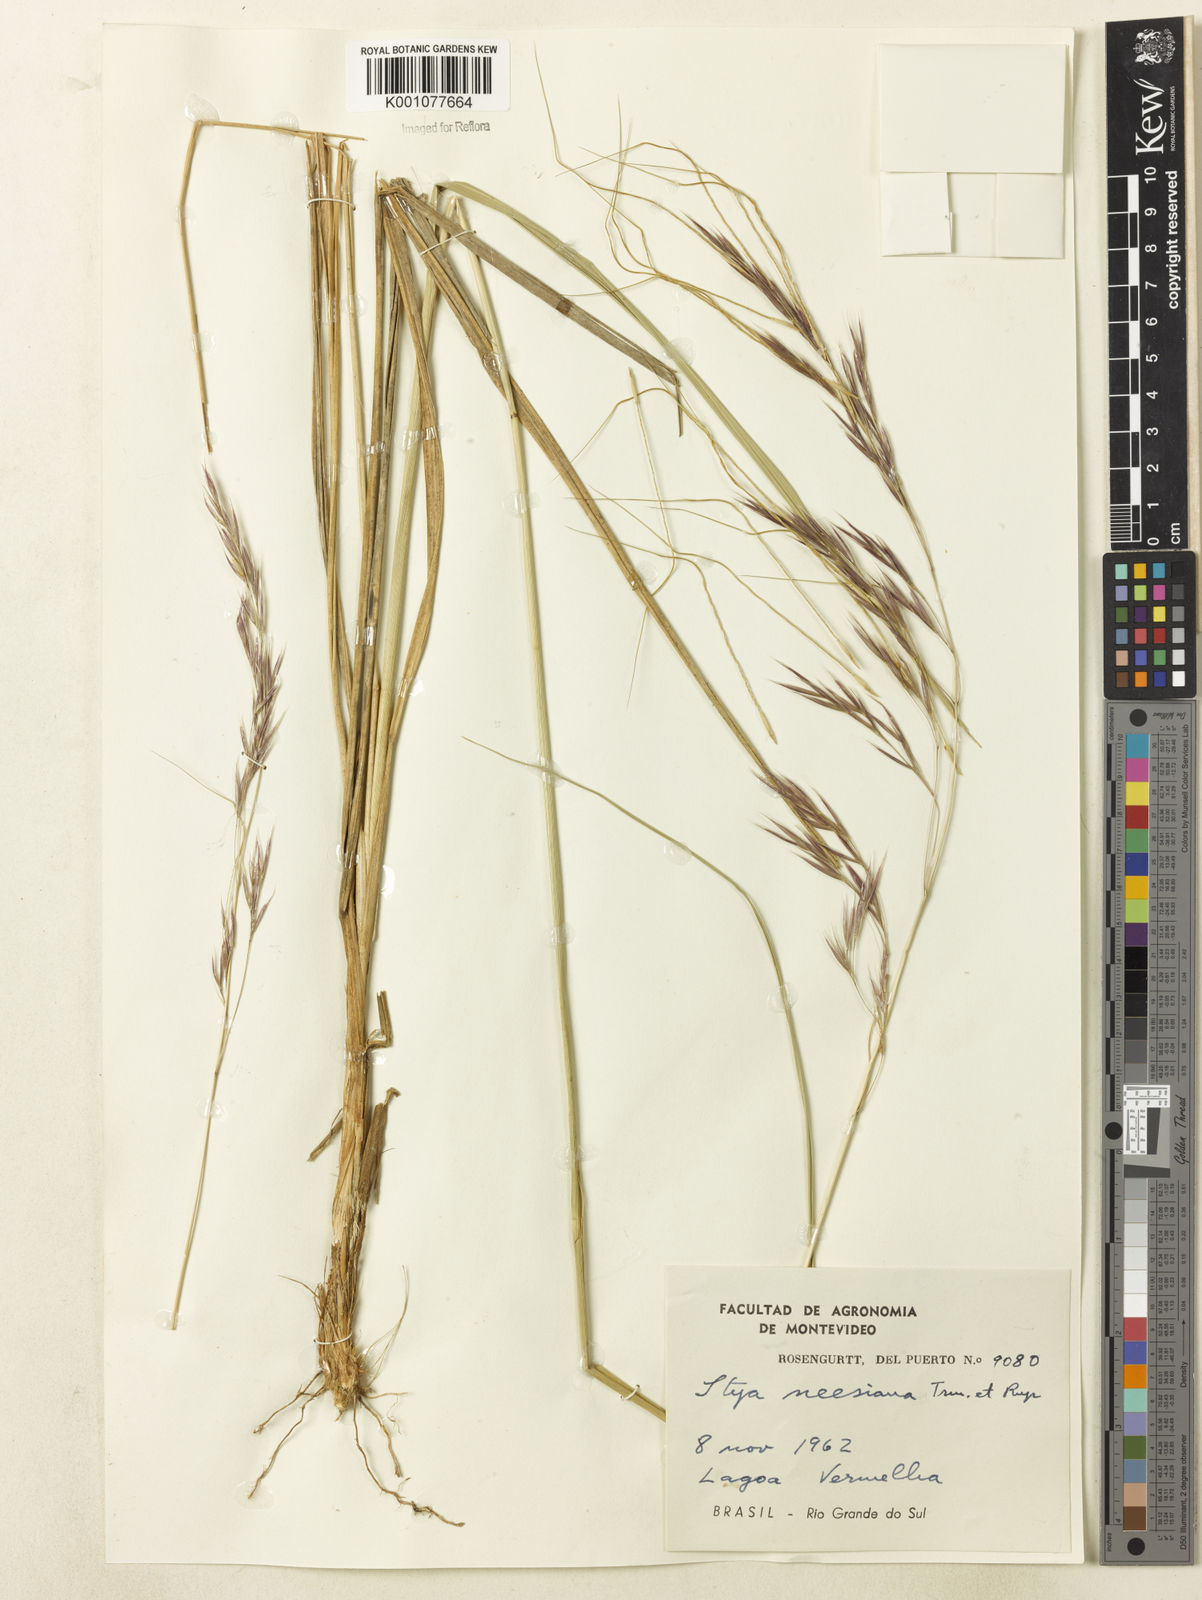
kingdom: Plantae
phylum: Tracheophyta
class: Liliopsida
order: Poales
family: Poaceae
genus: Nassella
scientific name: Nassella neesiana
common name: American needle-grass
